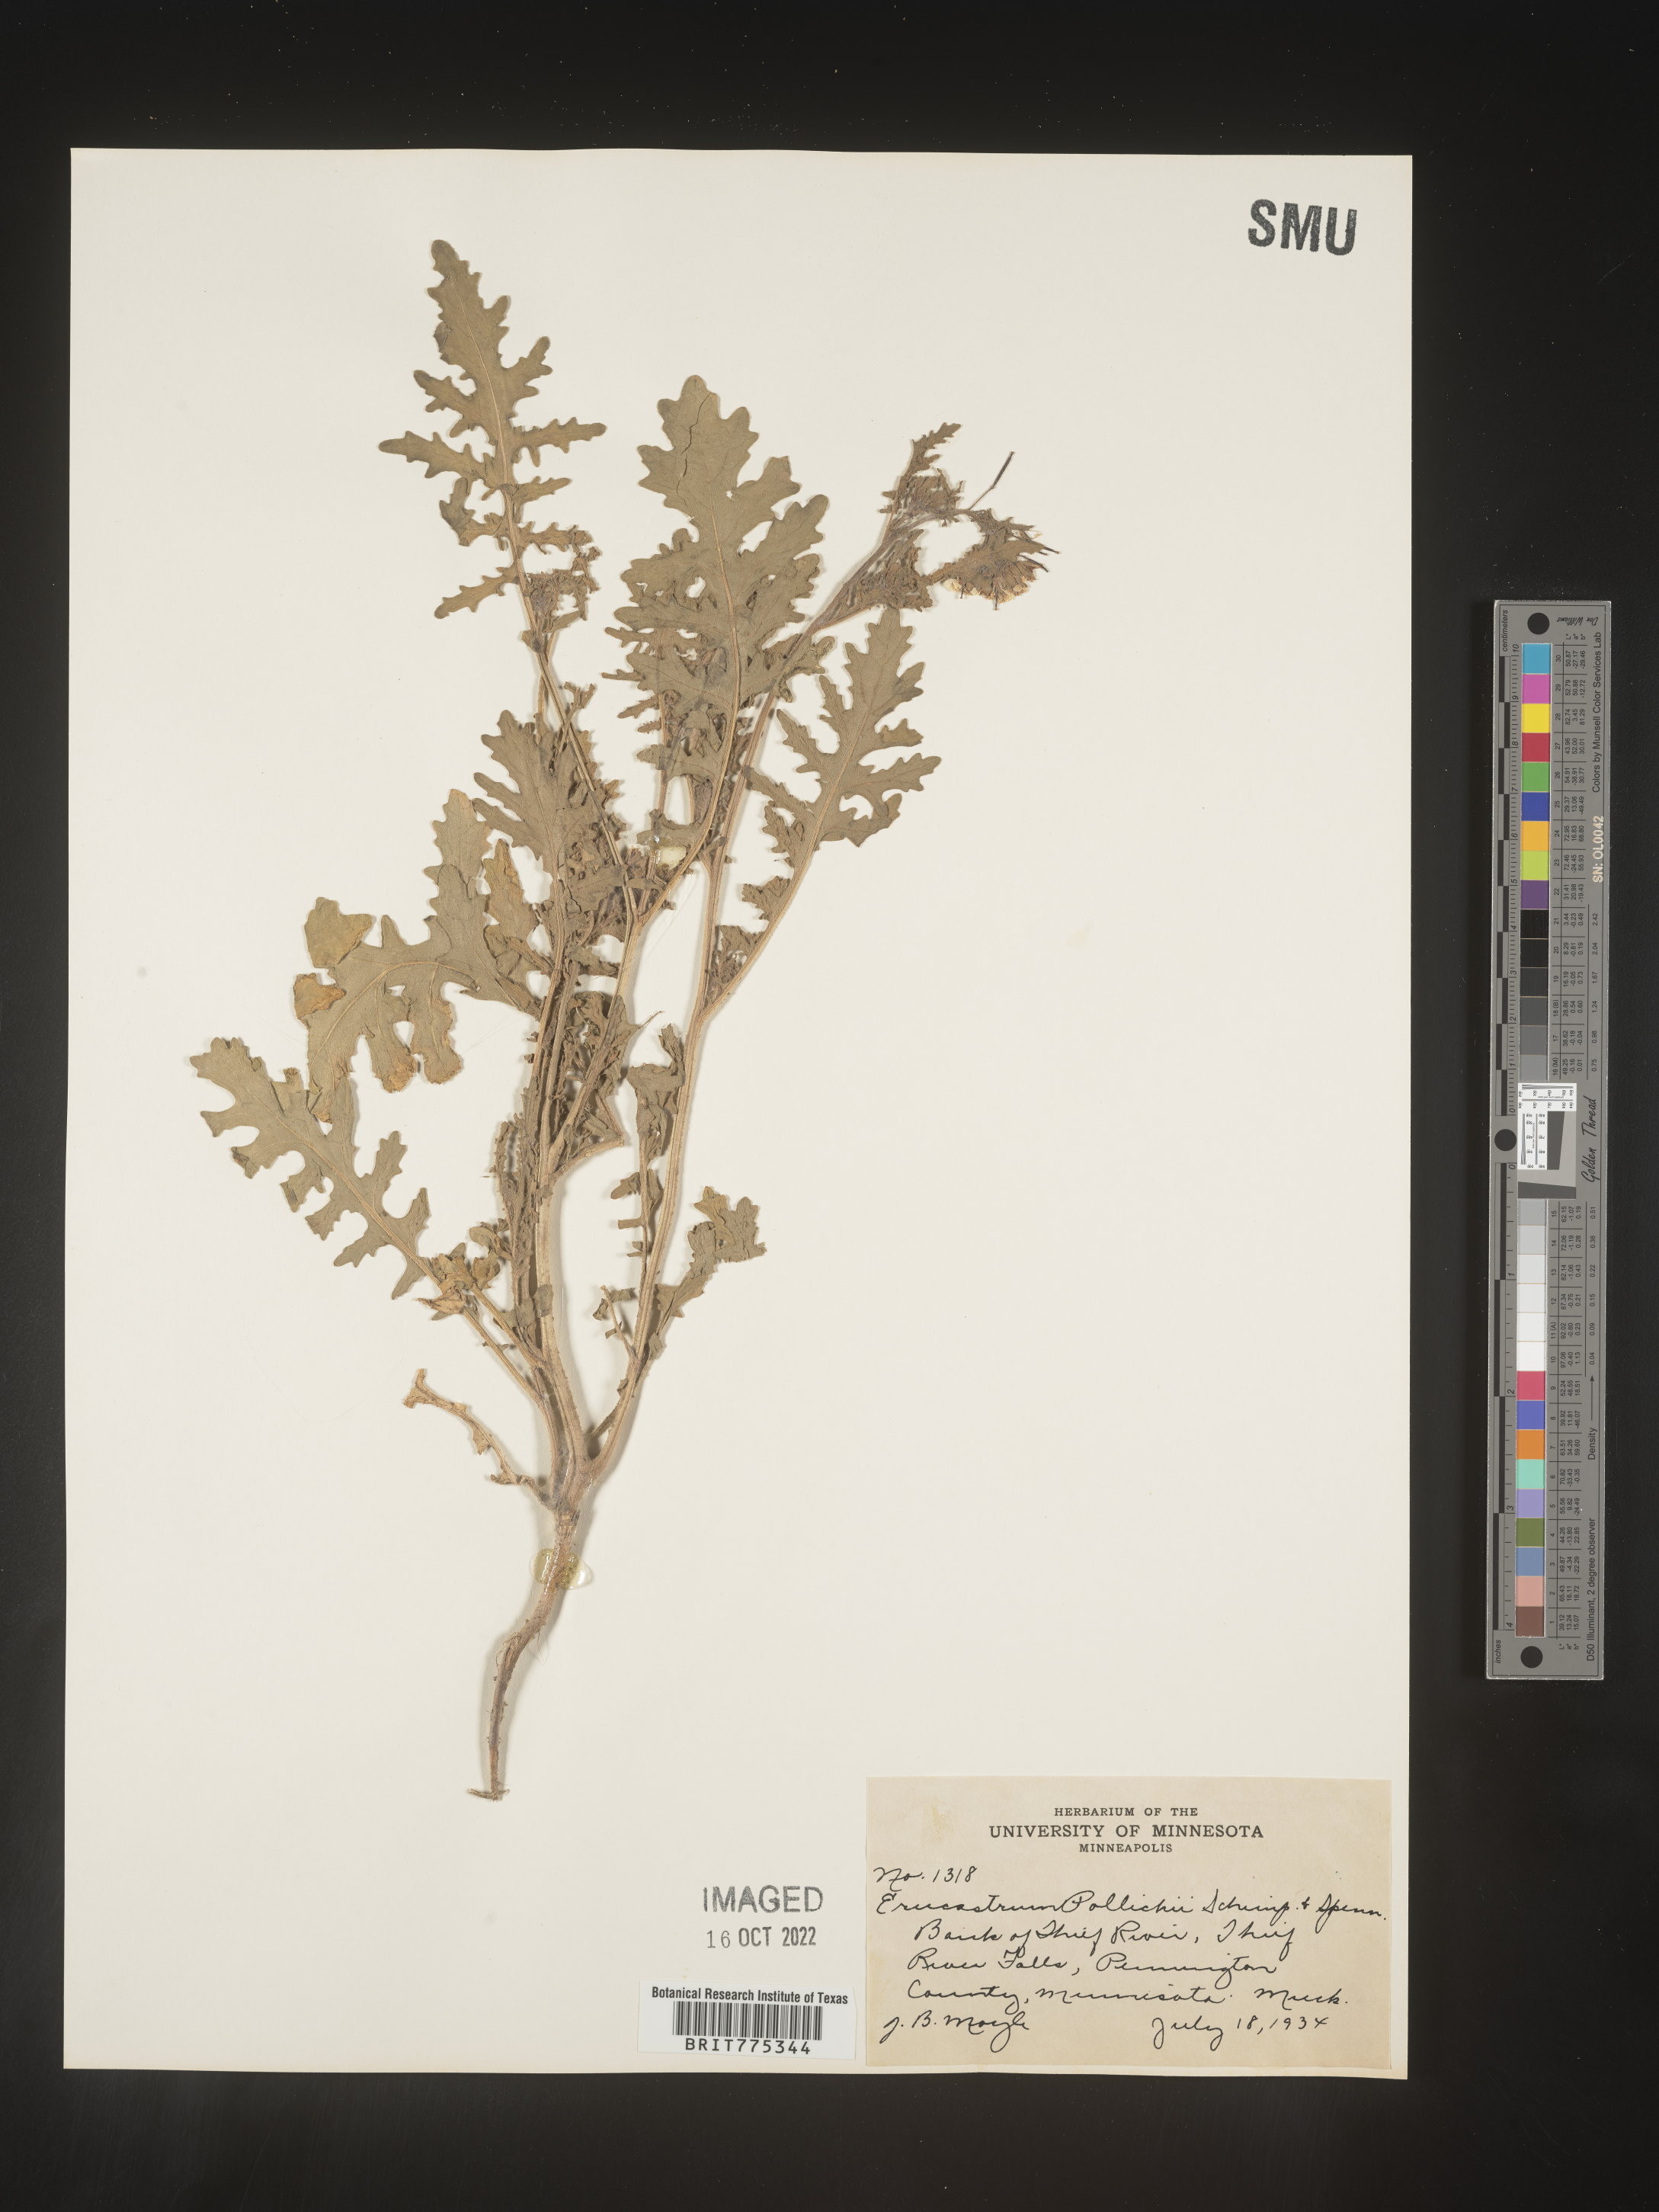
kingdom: Plantae
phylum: Tracheophyta
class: Magnoliopsida
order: Brassicales
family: Brassicaceae
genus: Erucastrum
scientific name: Erucastrum
